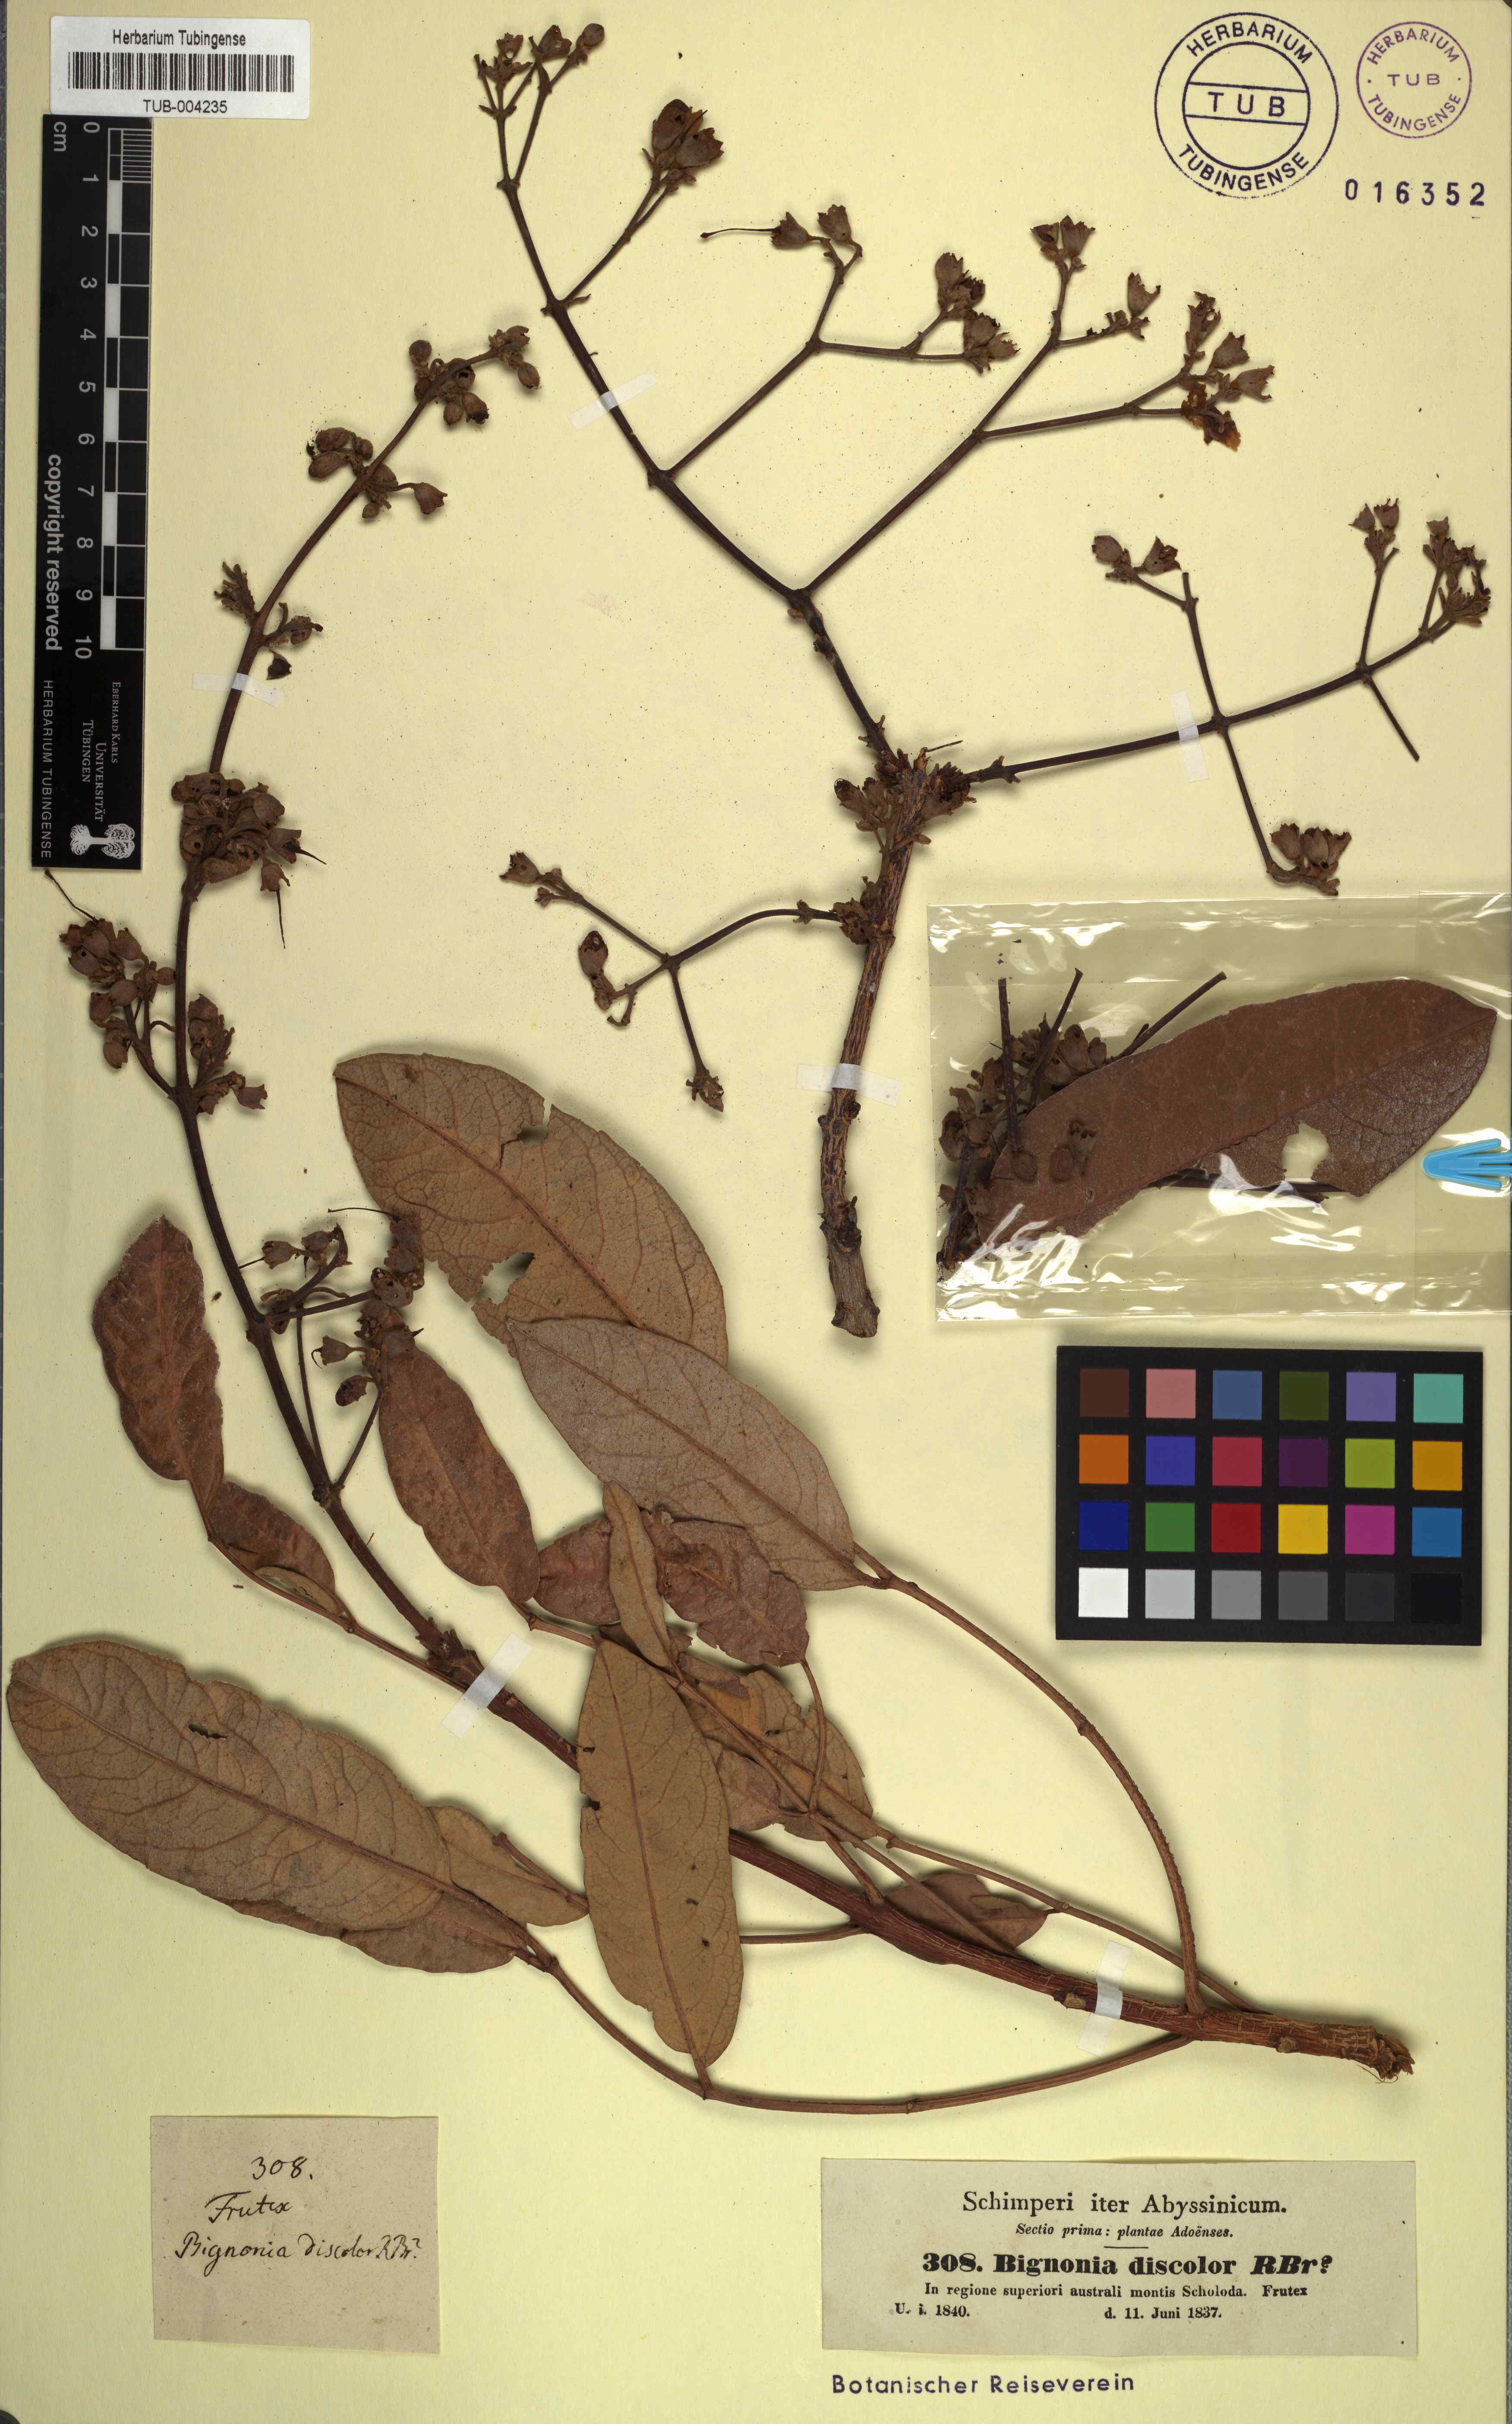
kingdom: Plantae
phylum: Tracheophyta
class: Magnoliopsida
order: Lamiales
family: Bignoniaceae
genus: Bignonia
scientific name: Bignonia discolor
